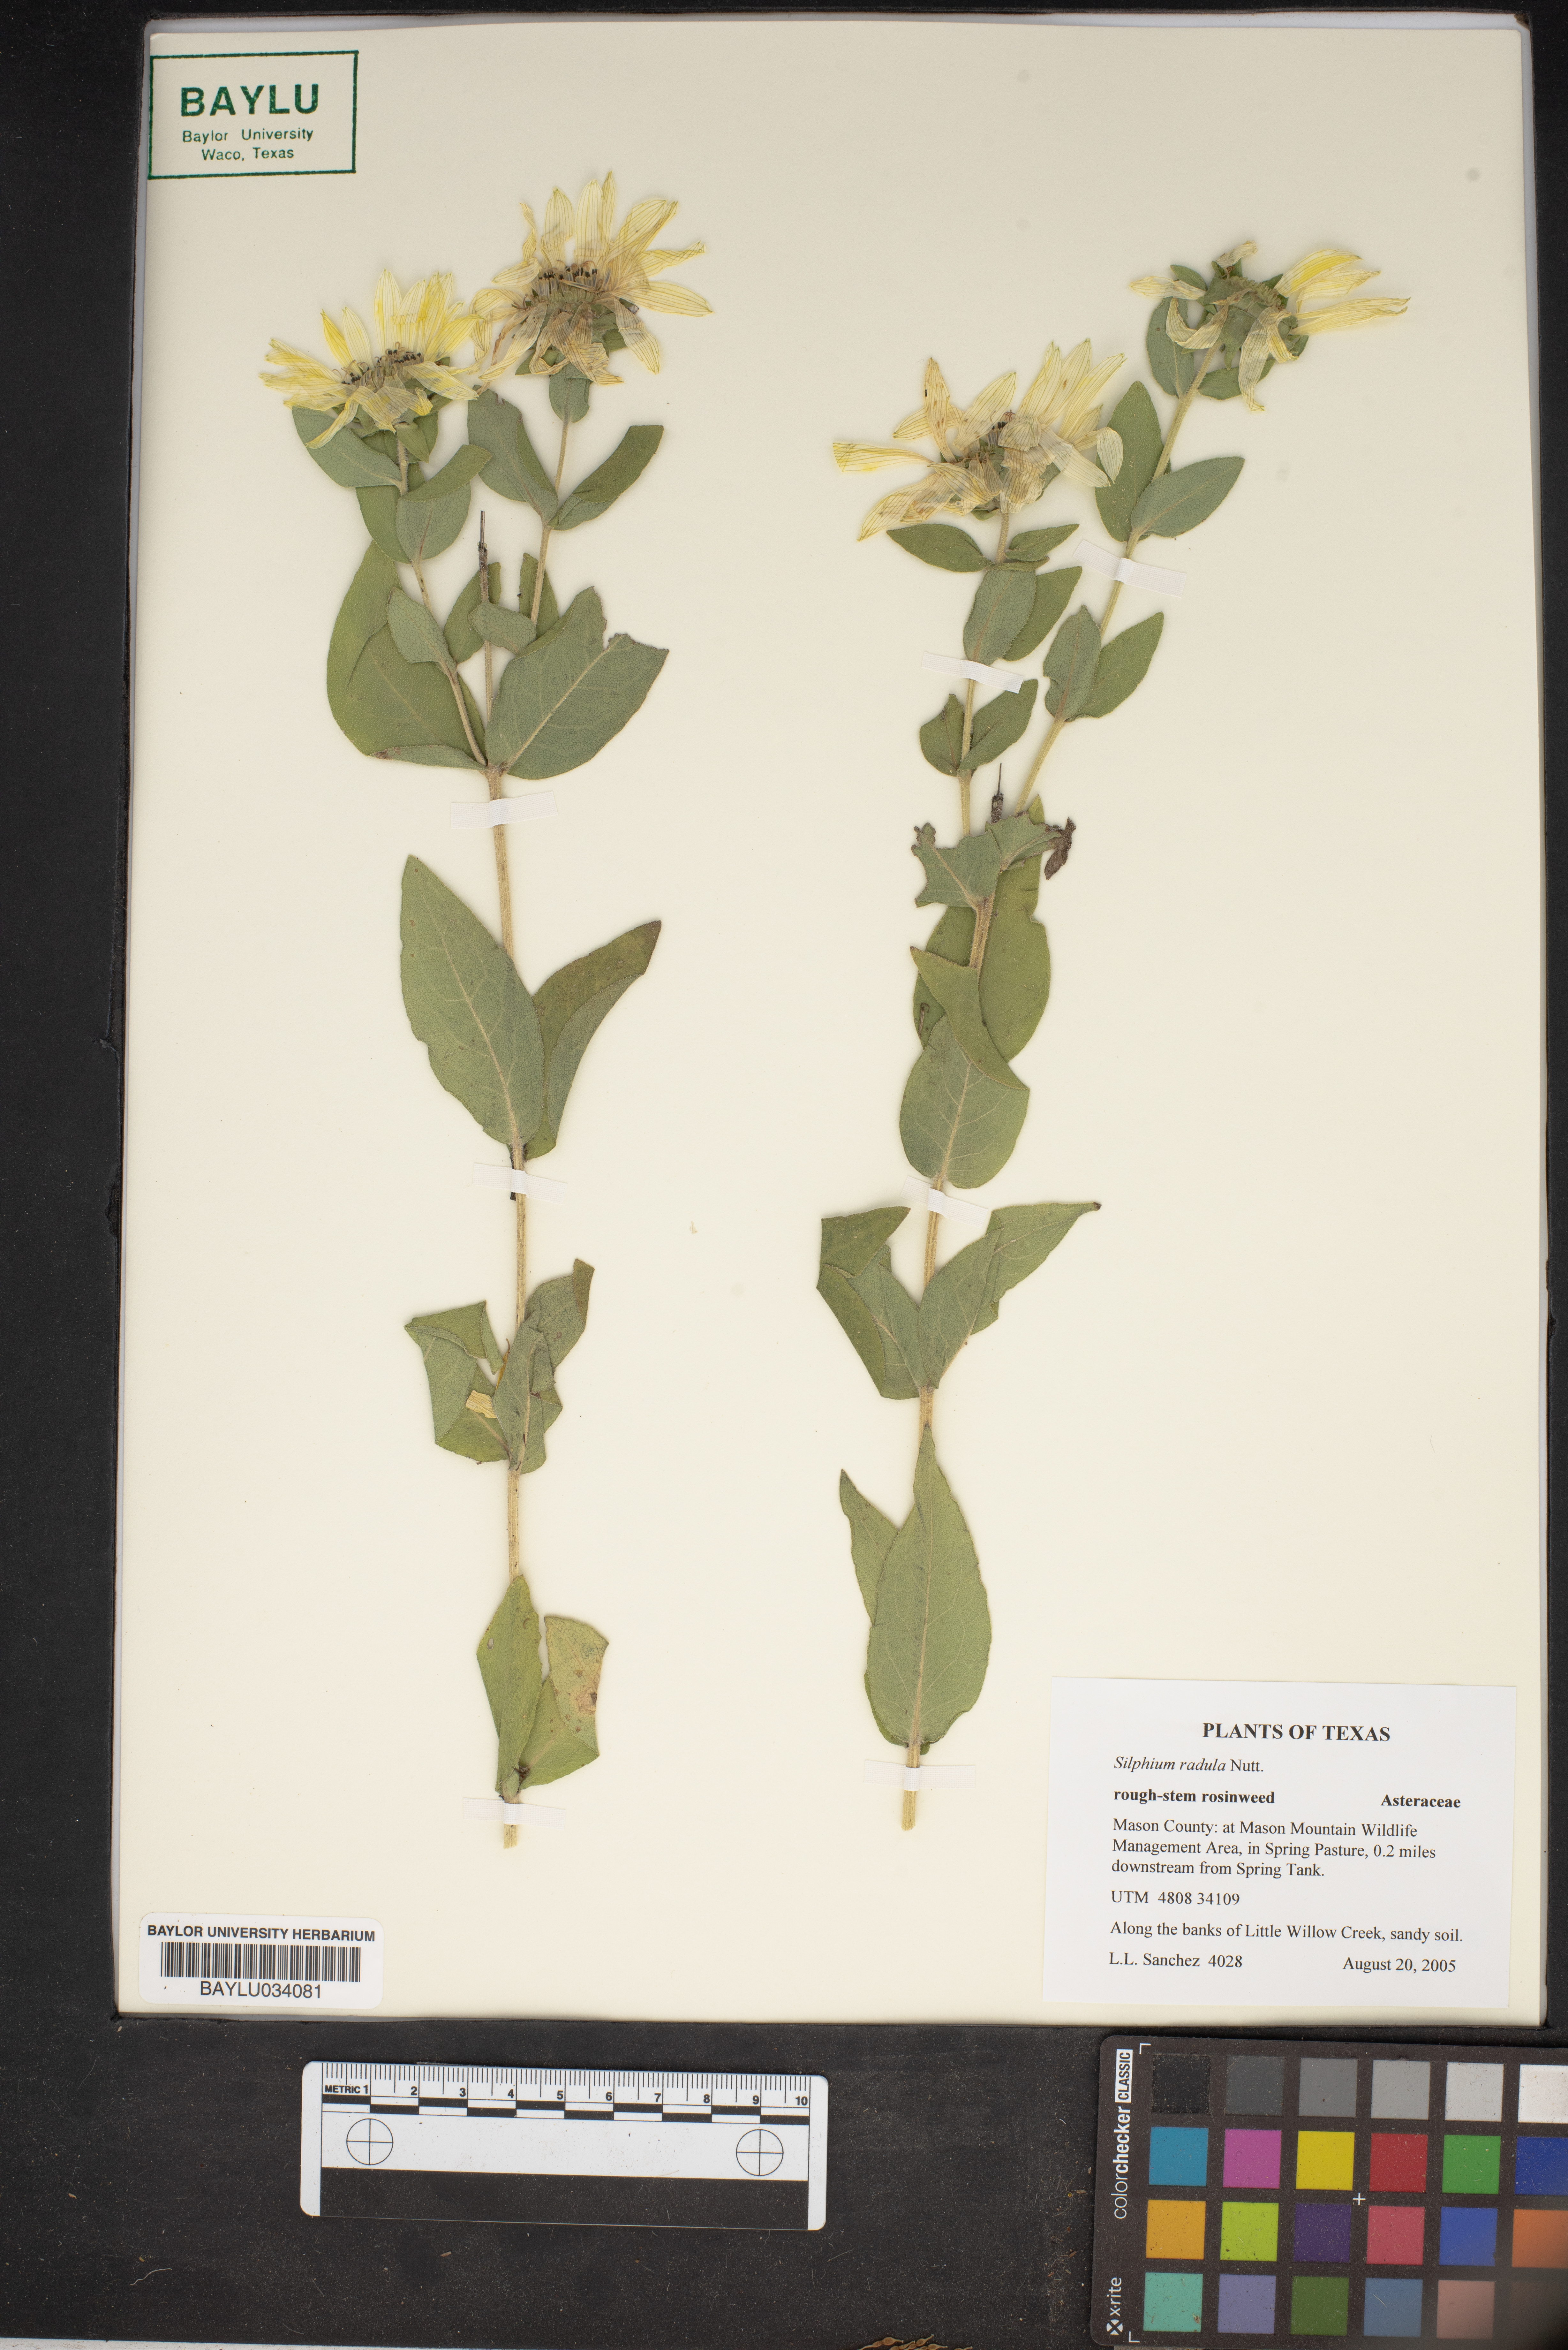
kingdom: Plantae
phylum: Tracheophyta
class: Magnoliopsida
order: Asterales
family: Asteraceae
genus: Silphium
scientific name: Silphium radula
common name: Roughleaf rosinweed
